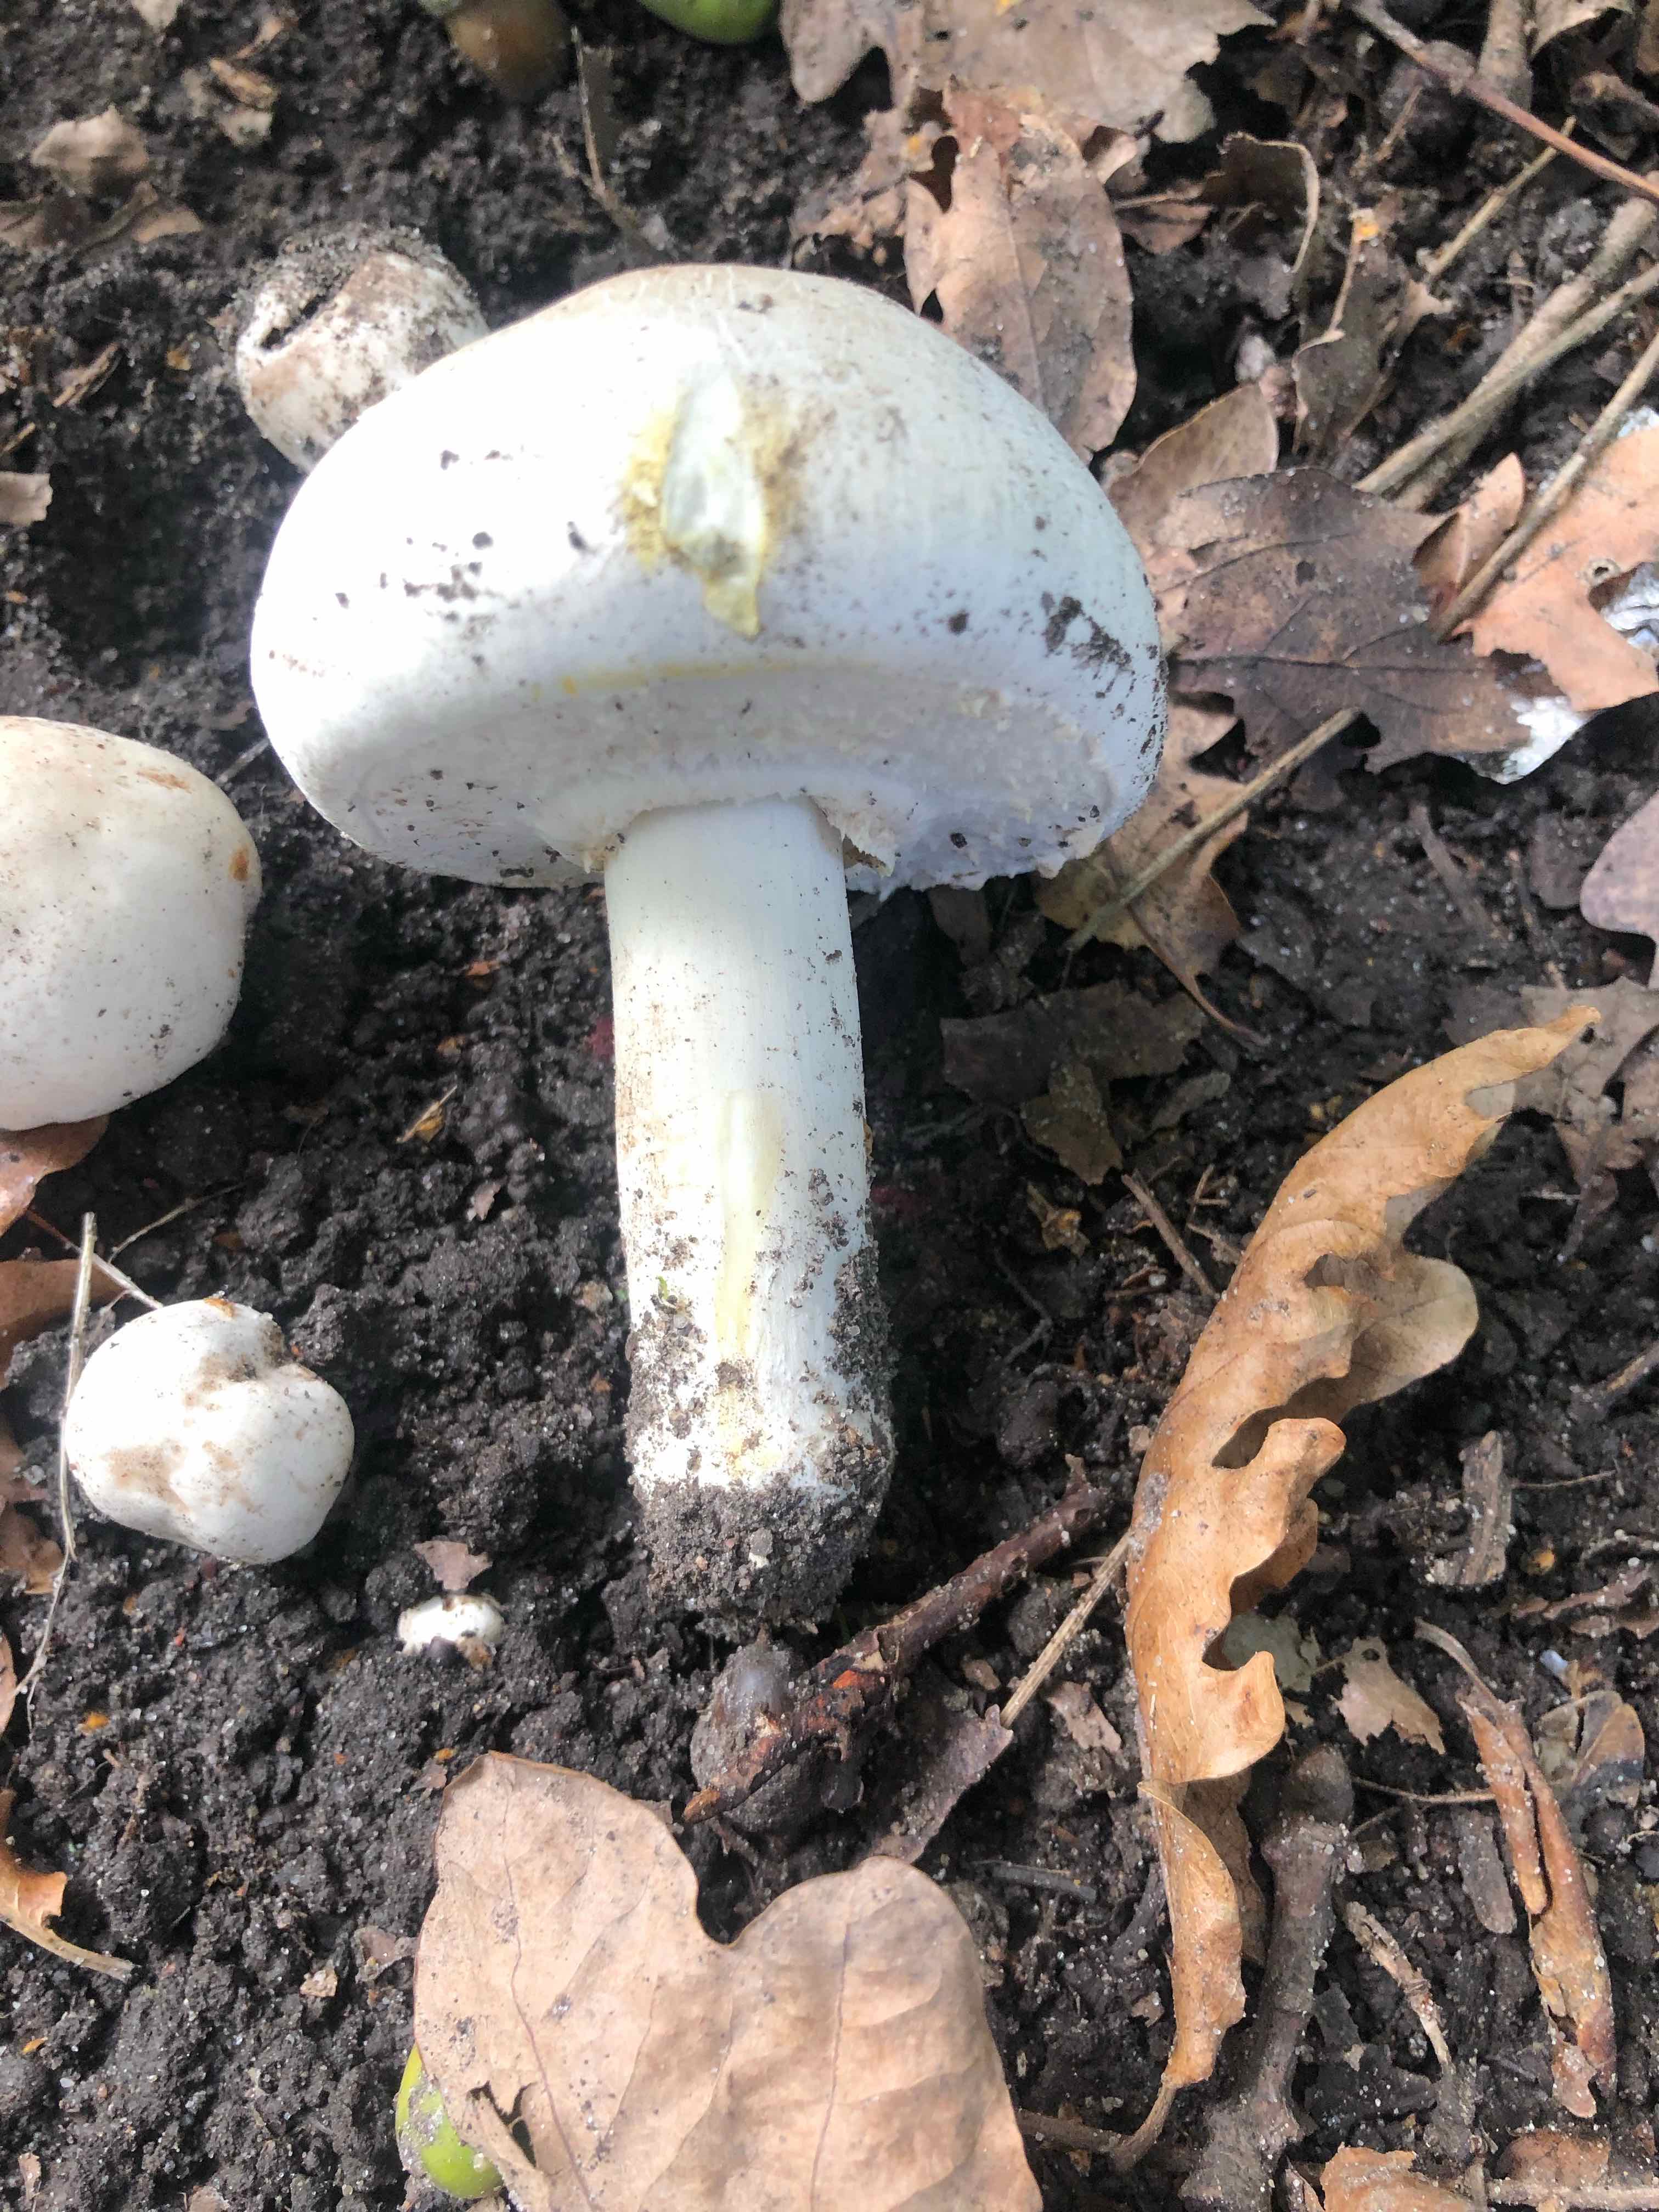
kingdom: Fungi
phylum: Basidiomycota
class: Agaricomycetes
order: Agaricales
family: Agaricaceae
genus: Agaricus
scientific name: Agaricus xanthodermus
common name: karbol-champignon
